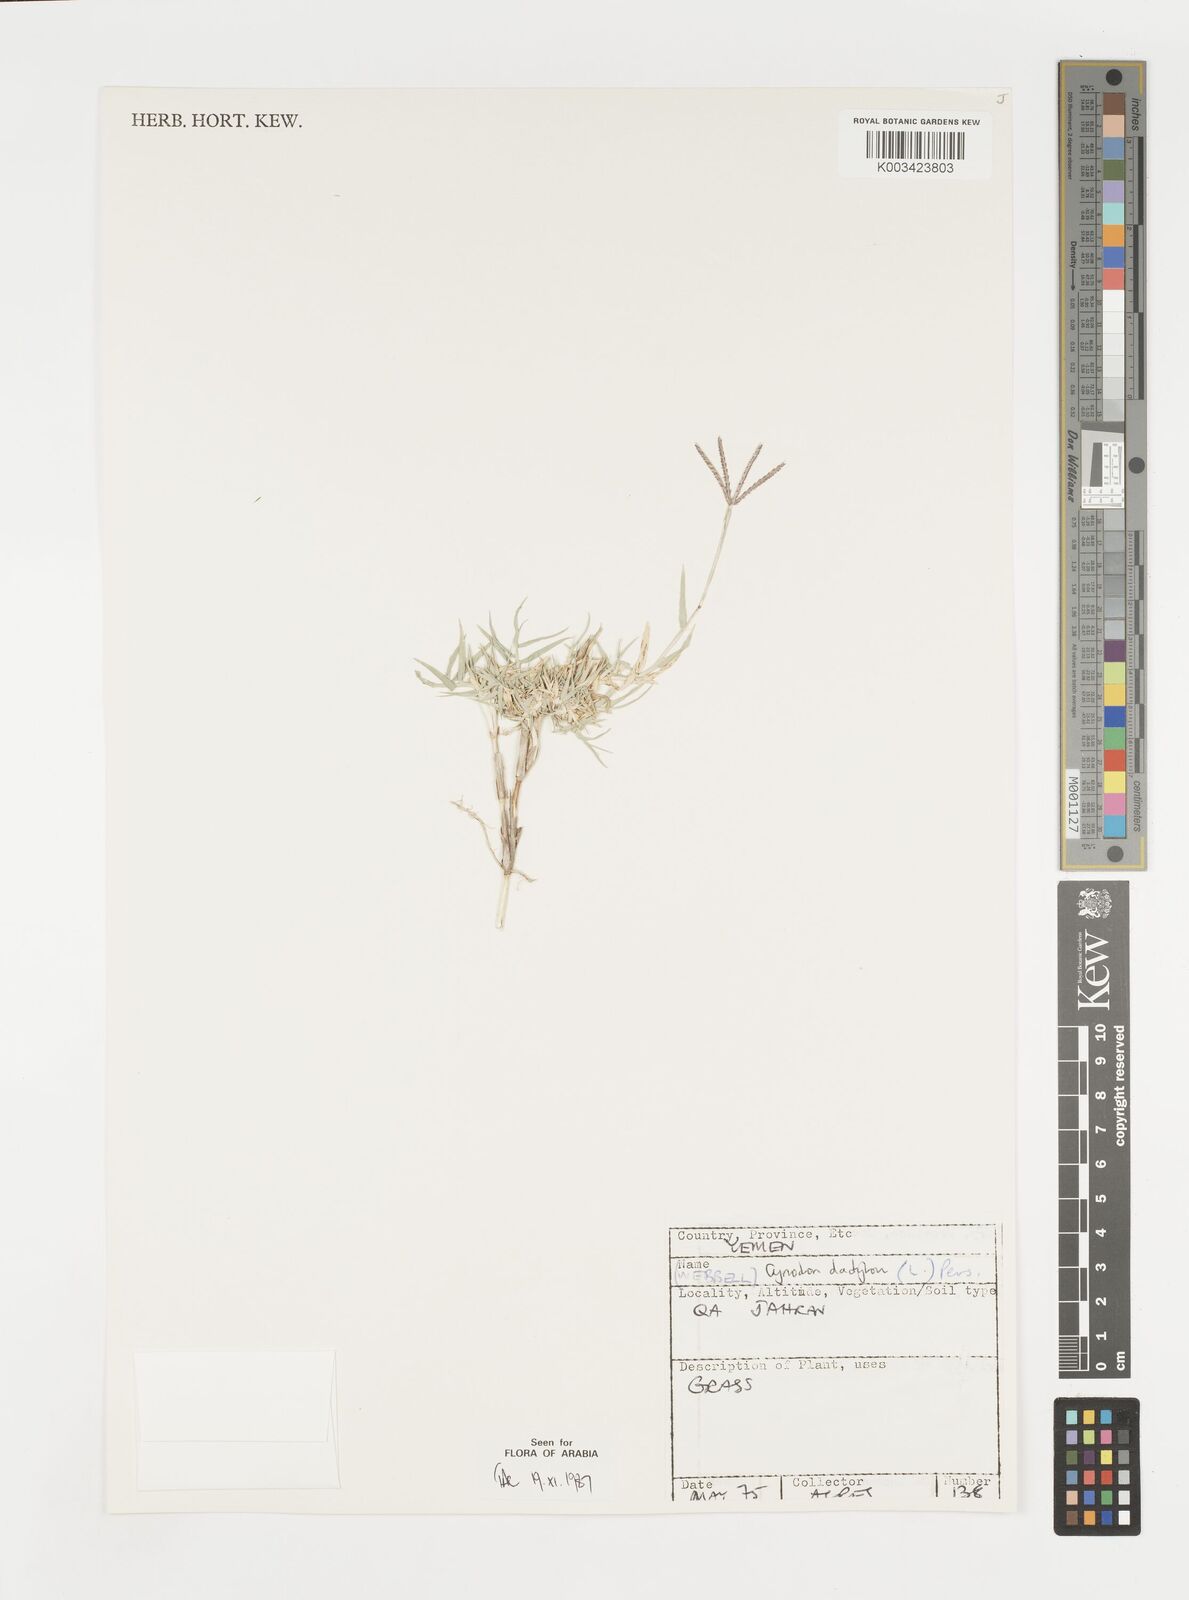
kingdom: Plantae
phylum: Tracheophyta
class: Liliopsida
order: Poales
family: Poaceae
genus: Cynodon
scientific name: Cynodon dactylon
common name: Bermuda grass
